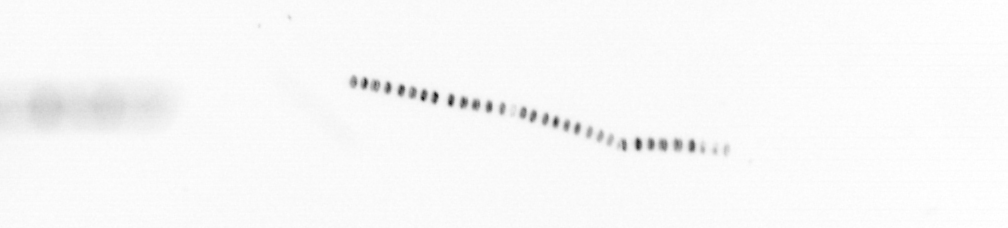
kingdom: Chromista
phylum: Ochrophyta
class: Bacillariophyceae
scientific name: Bacillariophyceae
